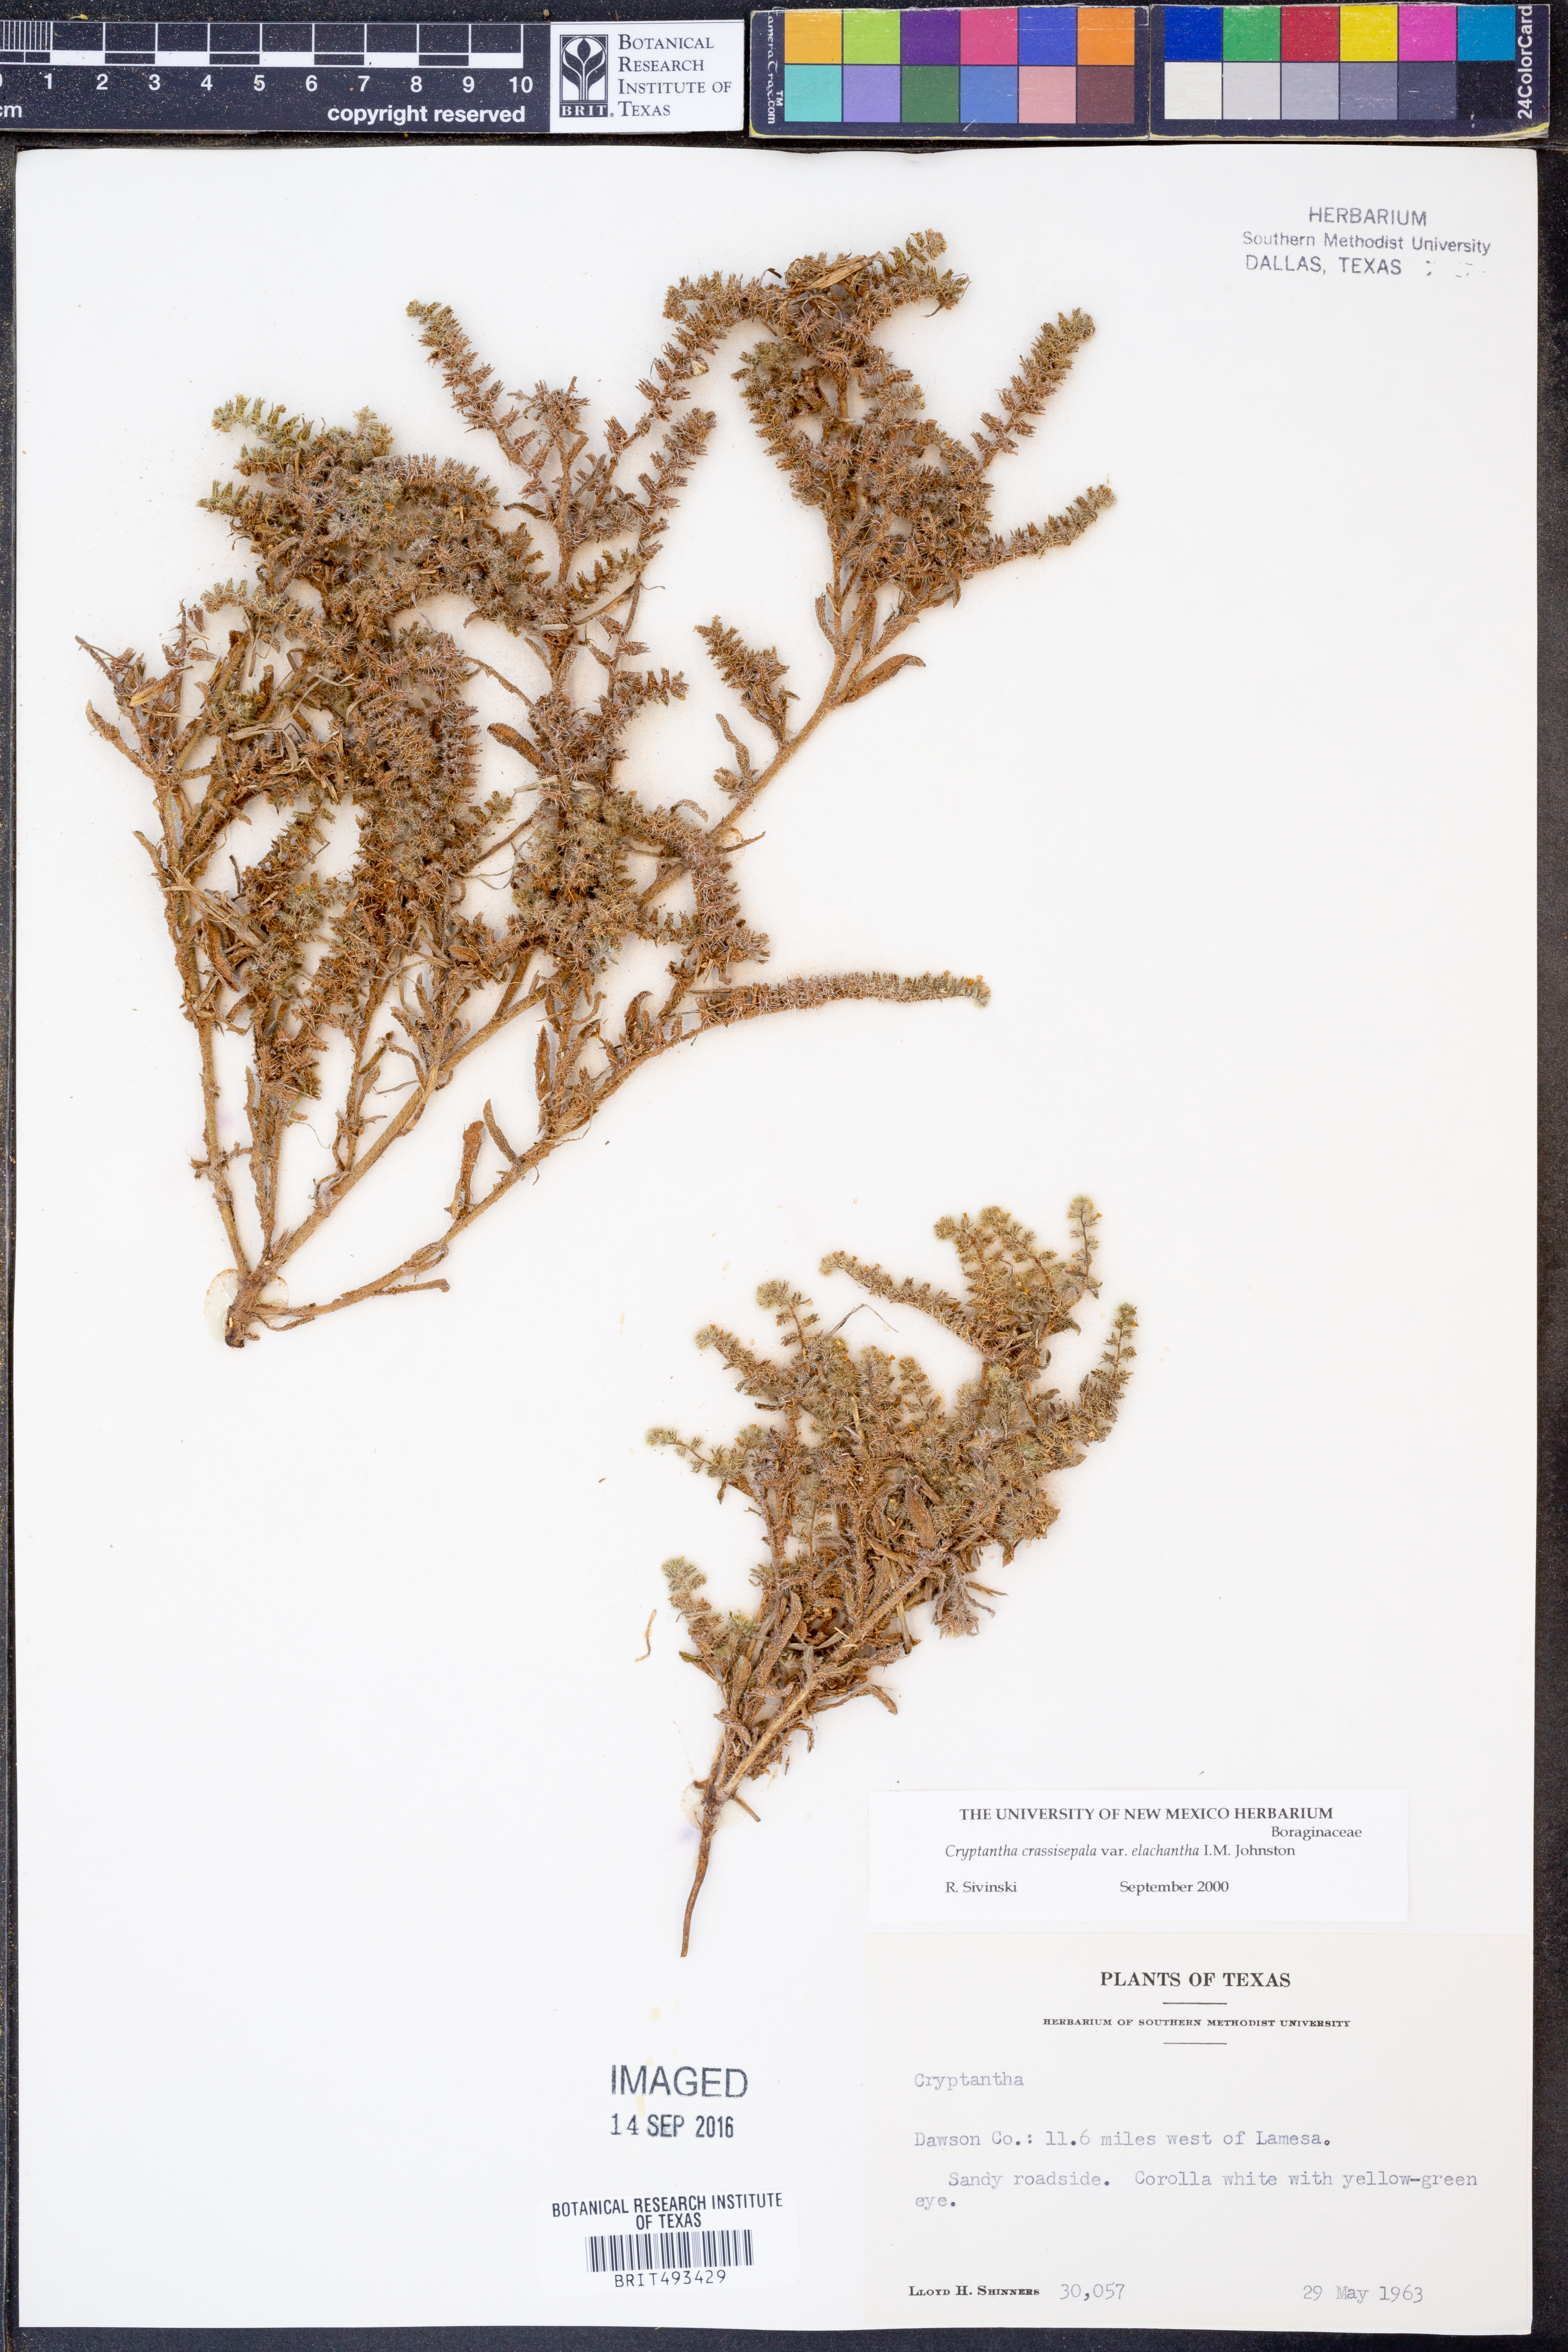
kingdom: Plantae
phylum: Tracheophyta
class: Magnoliopsida
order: Boraginales
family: Boraginaceae
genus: Cryptantha
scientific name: Cryptantha crassisepala
